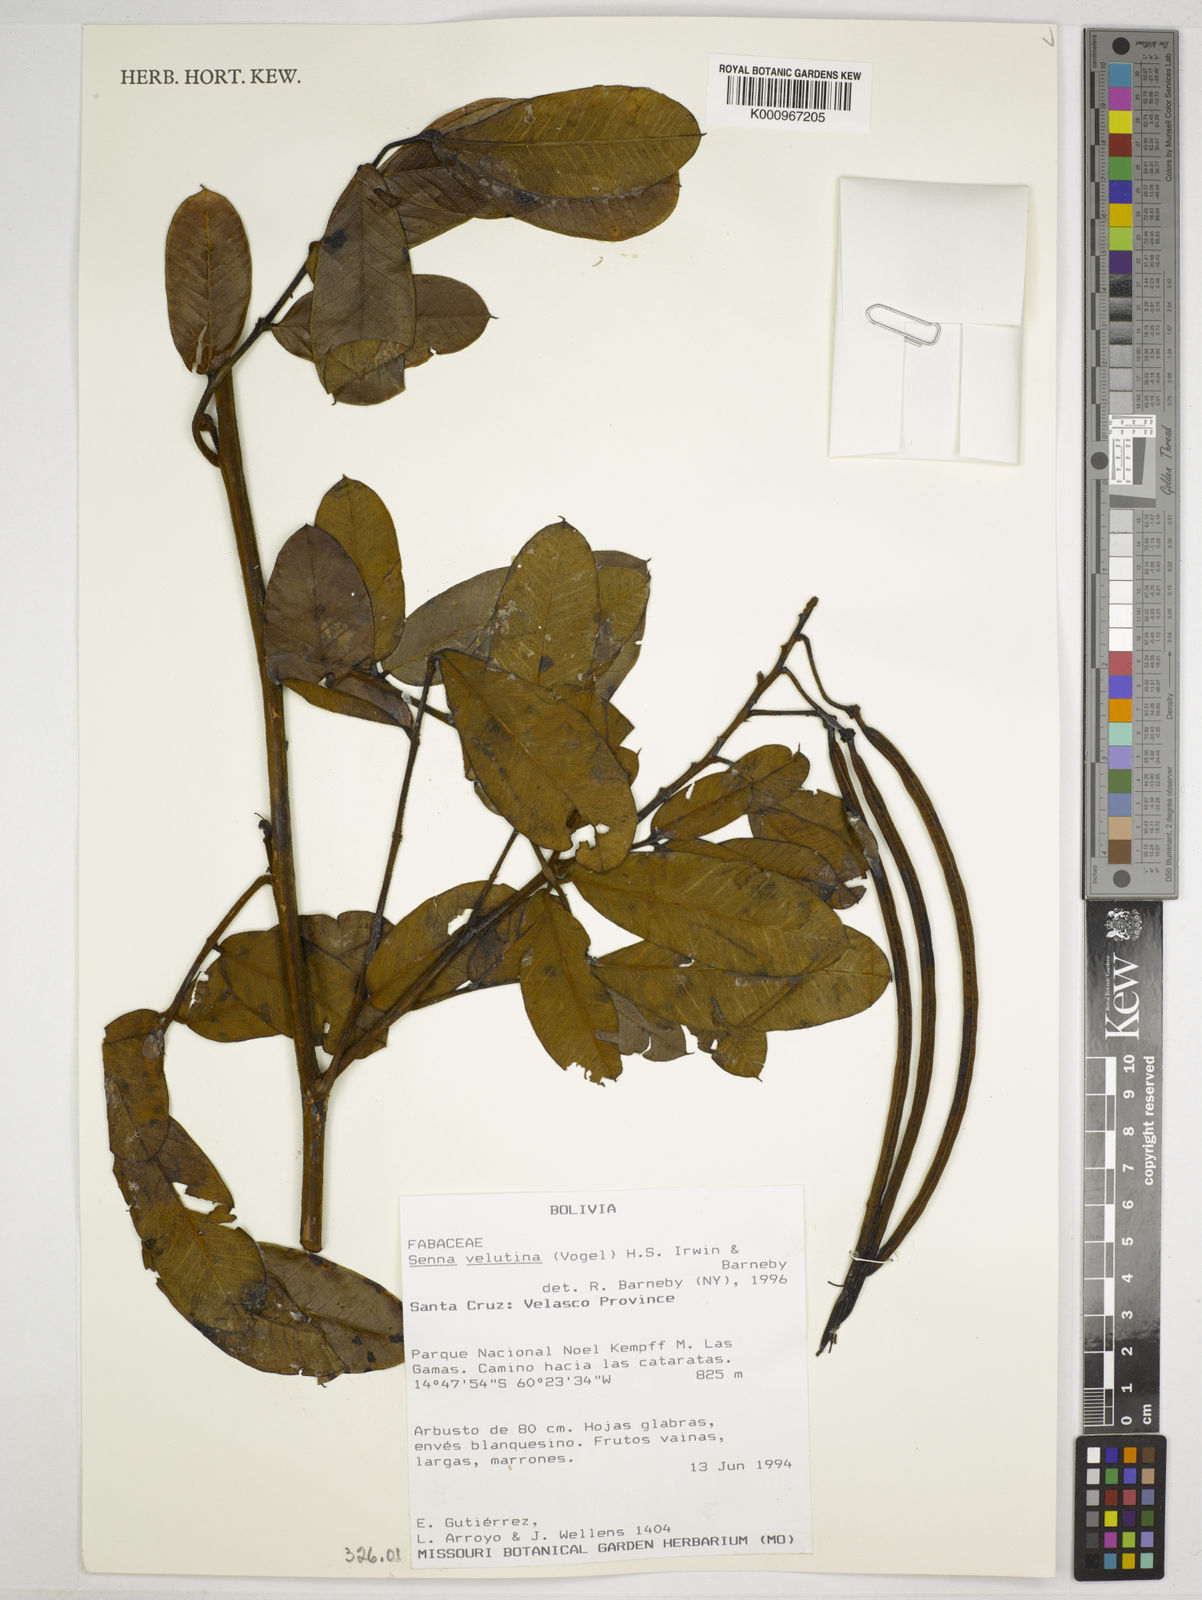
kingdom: Plantae
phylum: Tracheophyta
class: Magnoliopsida
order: Fabales
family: Fabaceae
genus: Senna
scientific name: Senna velutina
